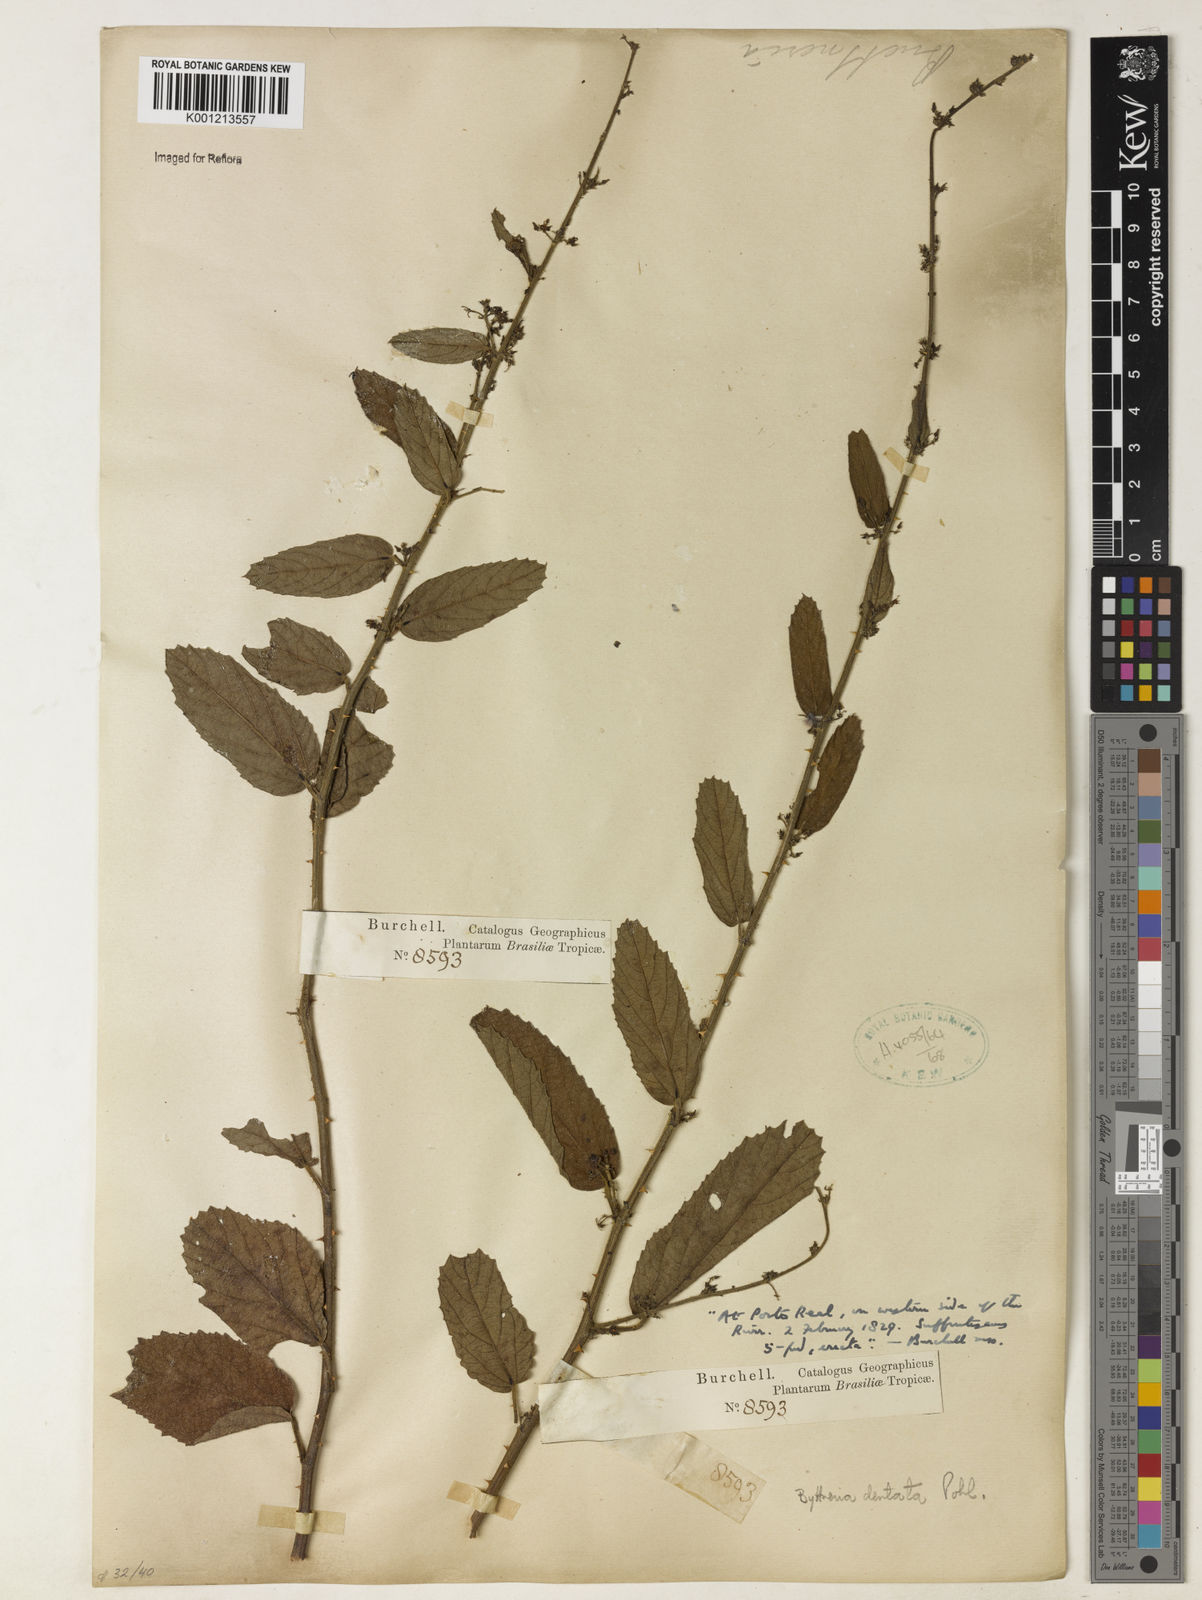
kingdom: Plantae
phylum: Tracheophyta
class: Magnoliopsida
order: Malvales
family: Malvaceae
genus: Byttneria
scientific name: Byttneria
